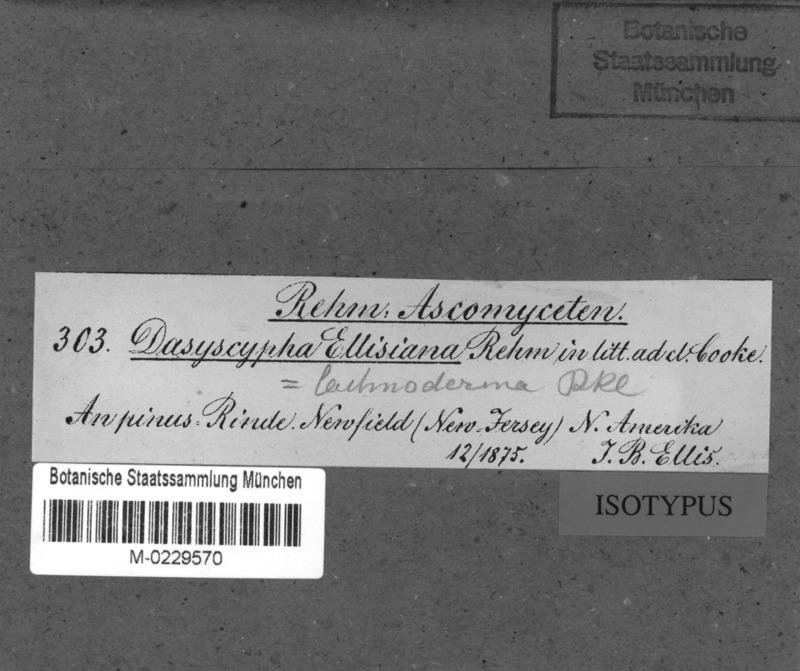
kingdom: Fungi
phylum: Ascomycota
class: Leotiomycetes
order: Helotiales
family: Lachnaceae
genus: Lachnellula
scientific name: Lachnellula ellisiana
